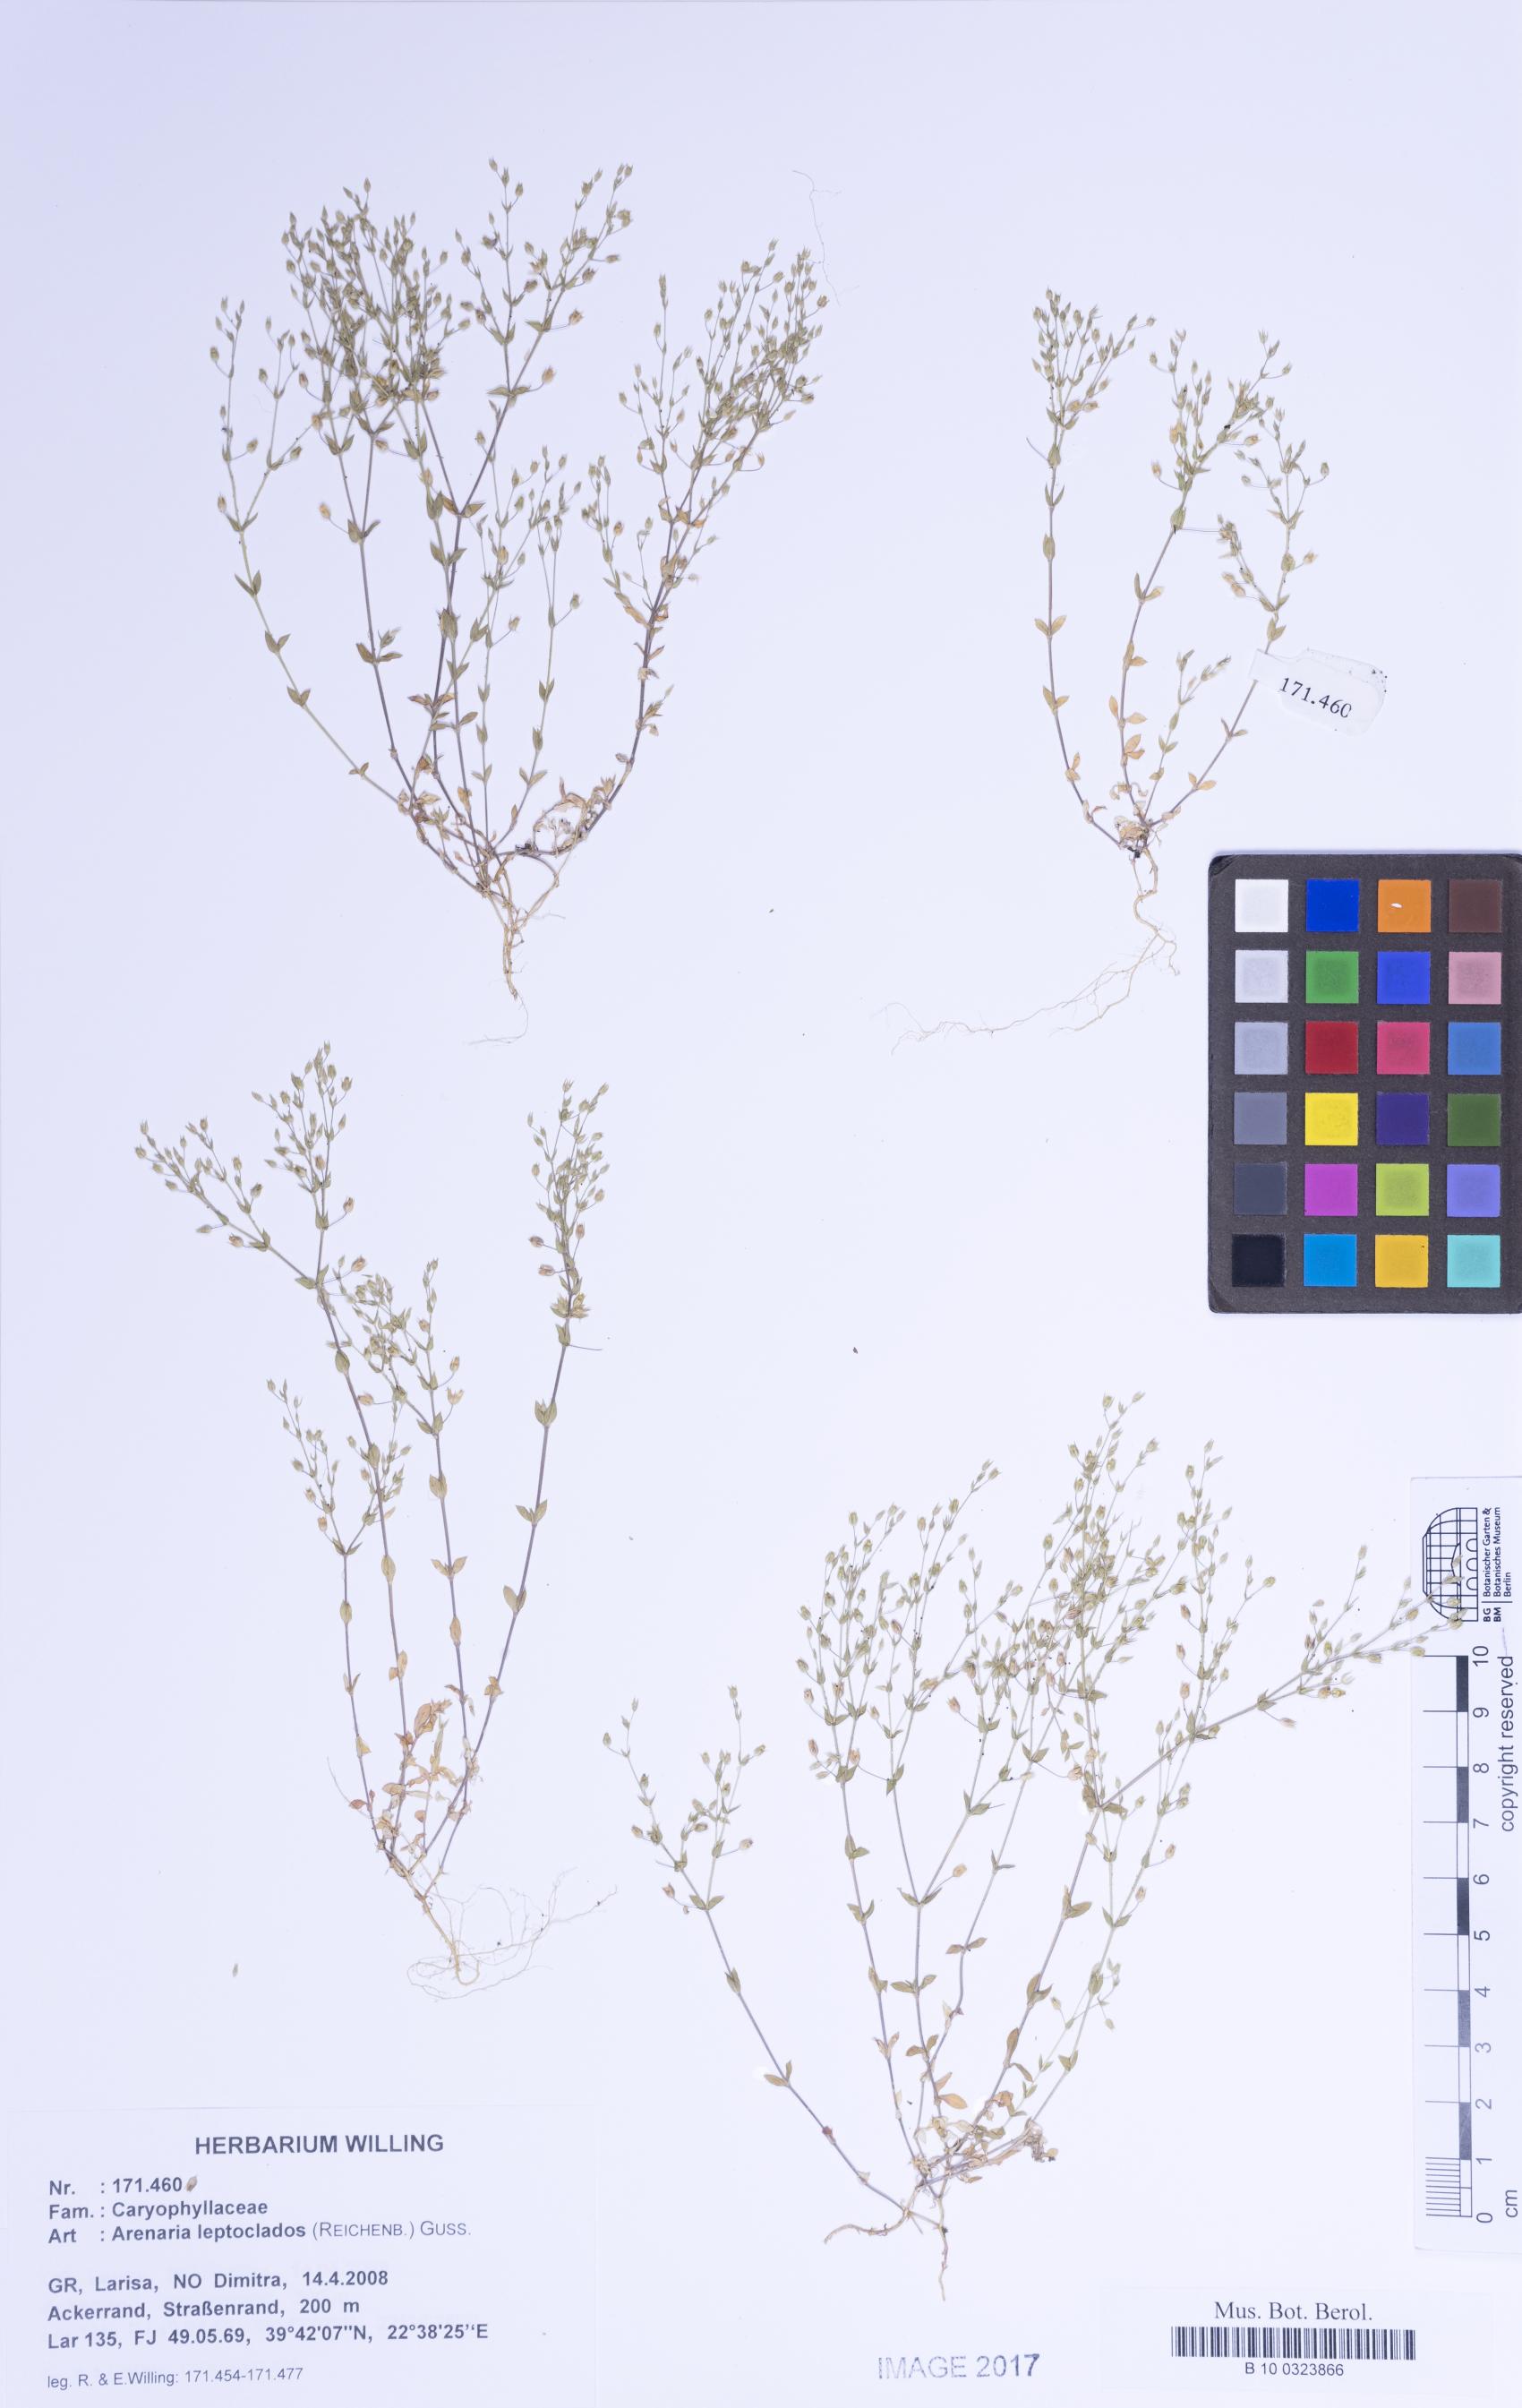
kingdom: Plantae
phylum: Tracheophyta
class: Magnoliopsida
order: Caryophyllales
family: Caryophyllaceae
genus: Arenaria
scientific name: Arenaria leptoclados
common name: Thyme-leaved sandwort
